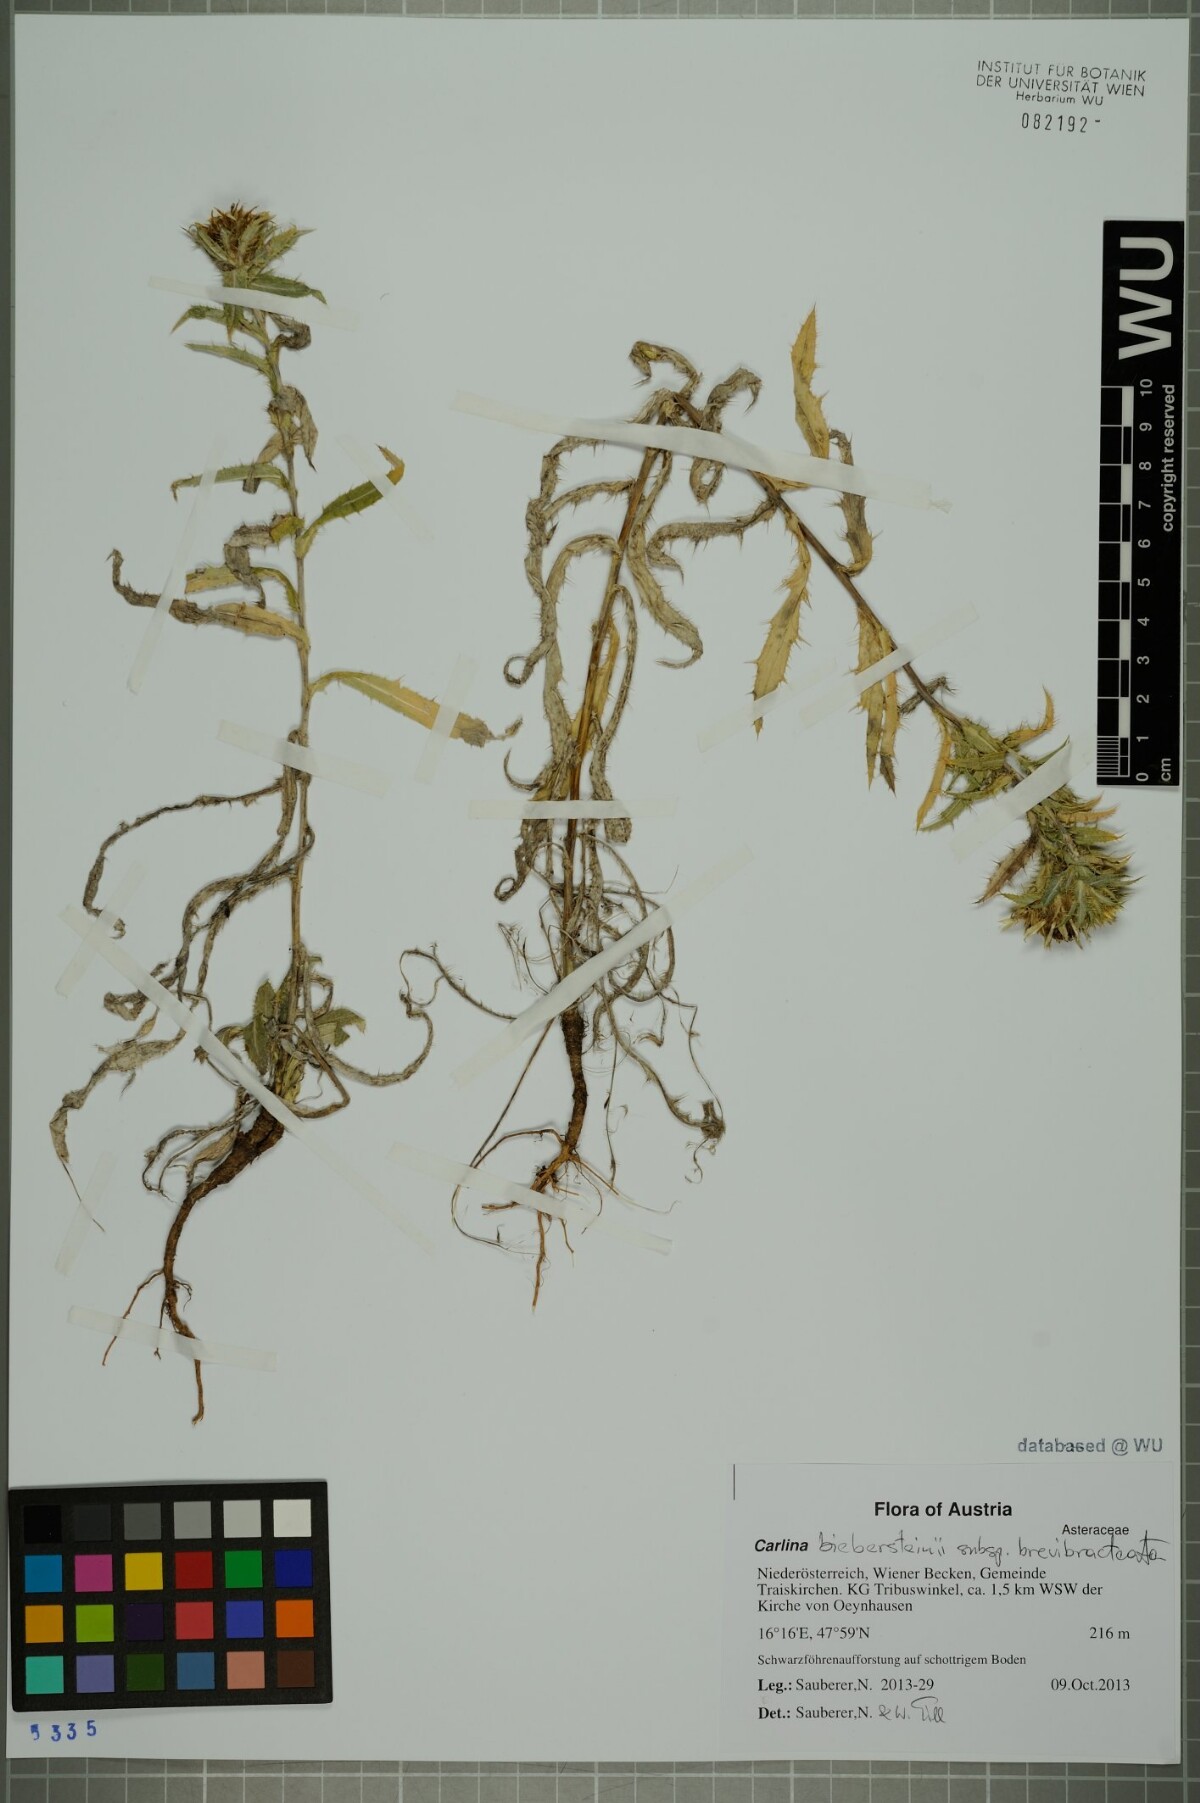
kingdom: Plantae
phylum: Tracheophyta
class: Magnoliopsida
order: Asterales
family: Asteraceae
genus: Carlina
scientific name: Carlina biebersteinii
